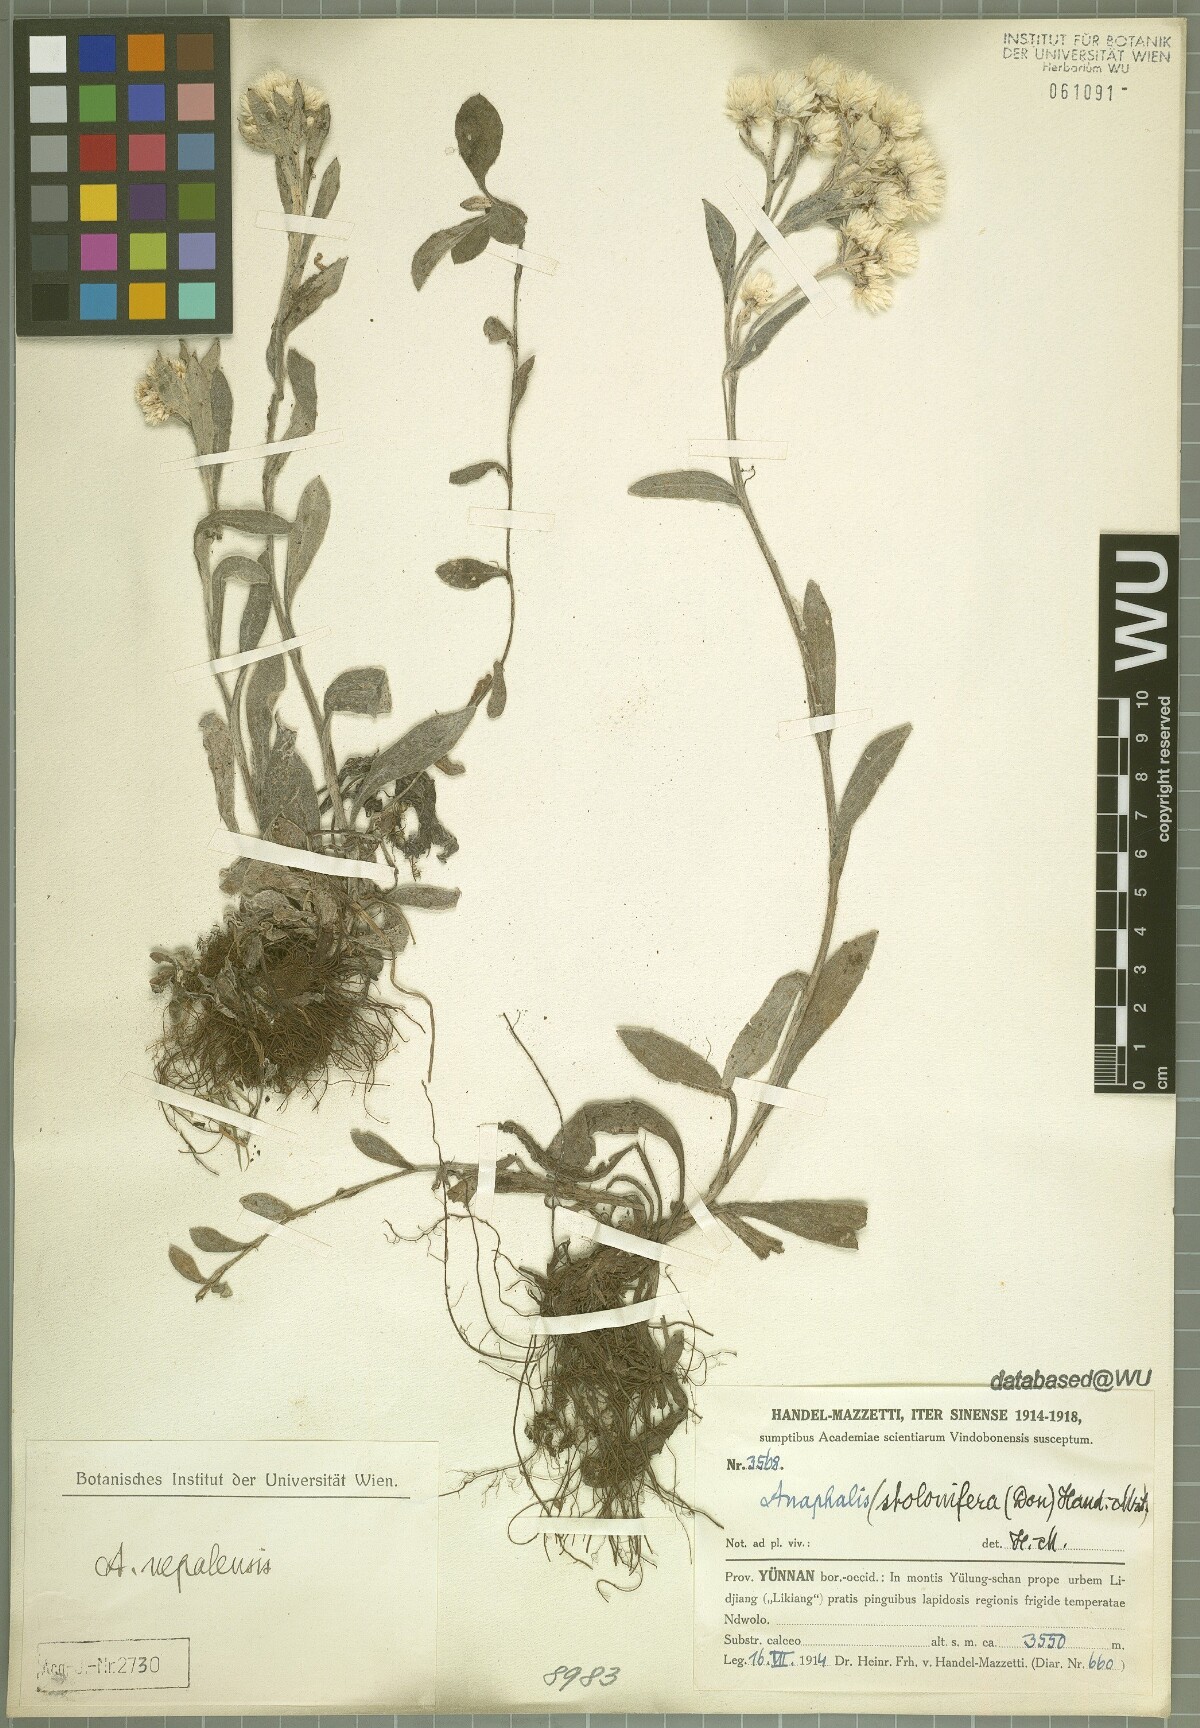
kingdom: Plantae
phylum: Tracheophyta
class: Magnoliopsida
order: Asterales
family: Asteraceae
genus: Anaphalis
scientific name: Anaphalis nepalensis
